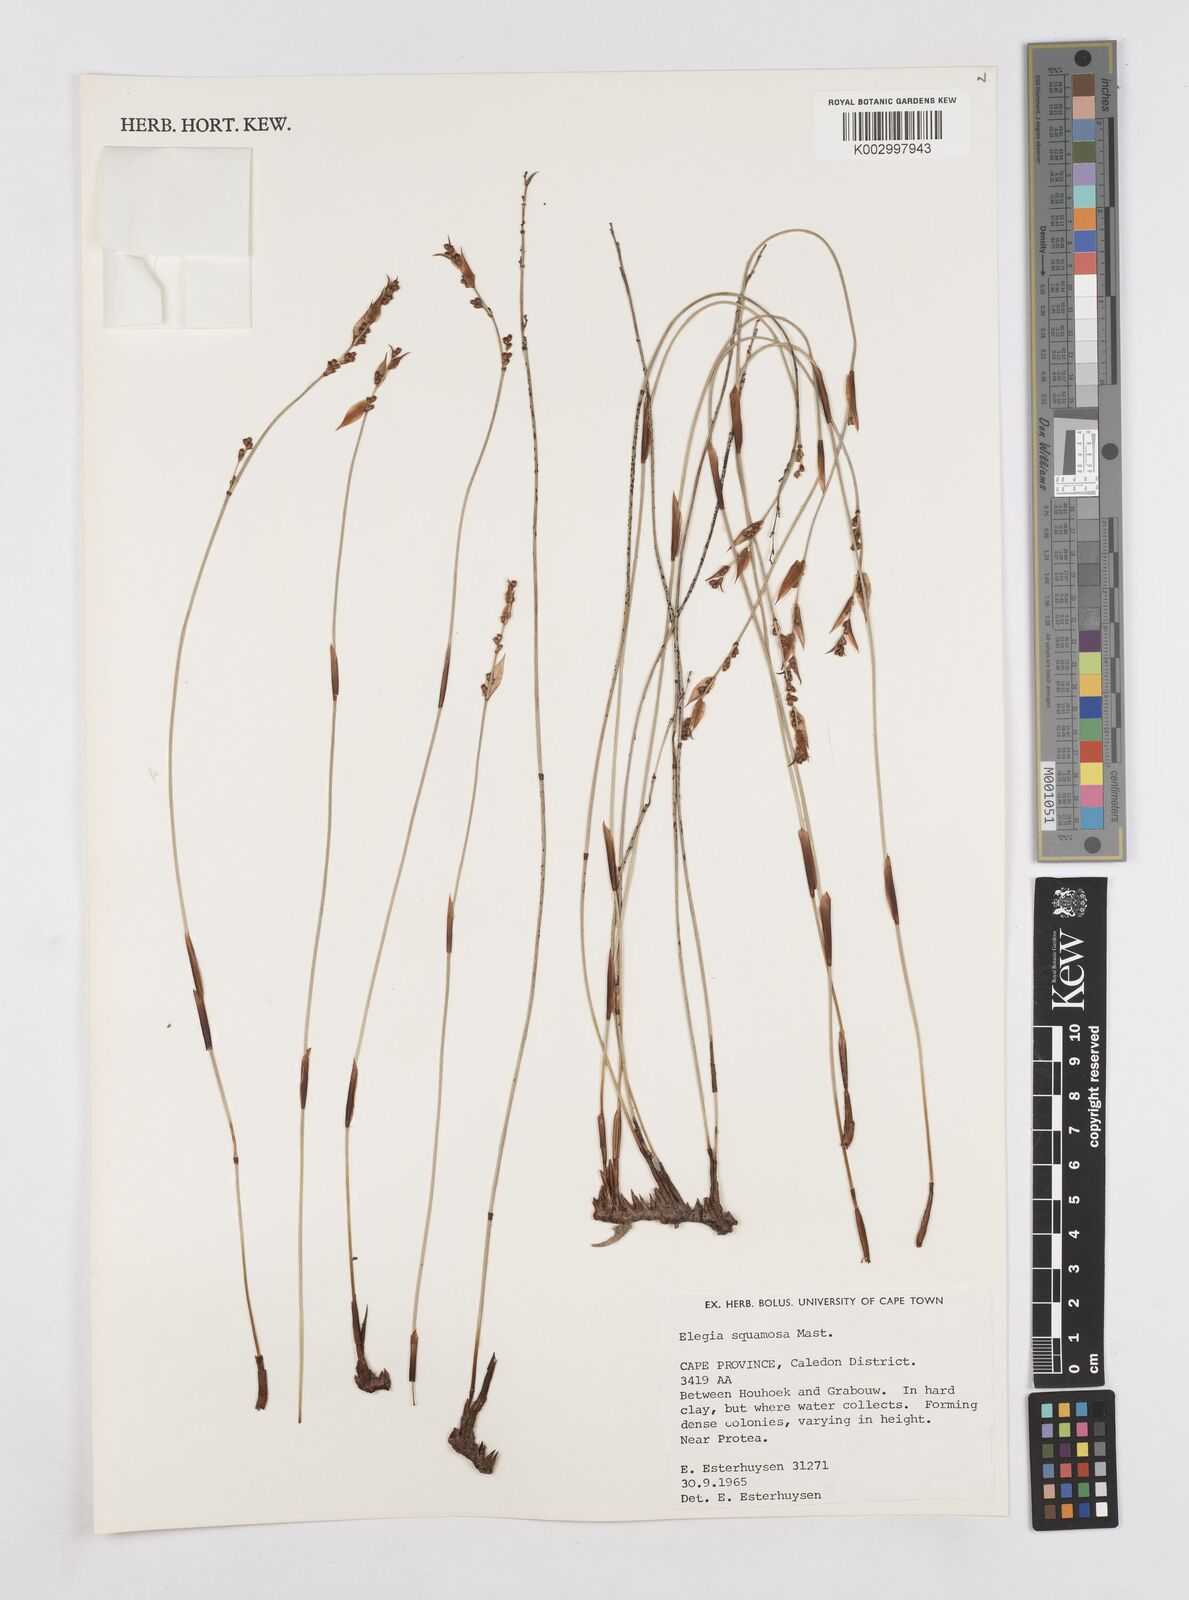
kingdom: Plantae
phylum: Tracheophyta
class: Liliopsida
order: Poales
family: Restionaceae
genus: Elegia
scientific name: Elegia squamosa
